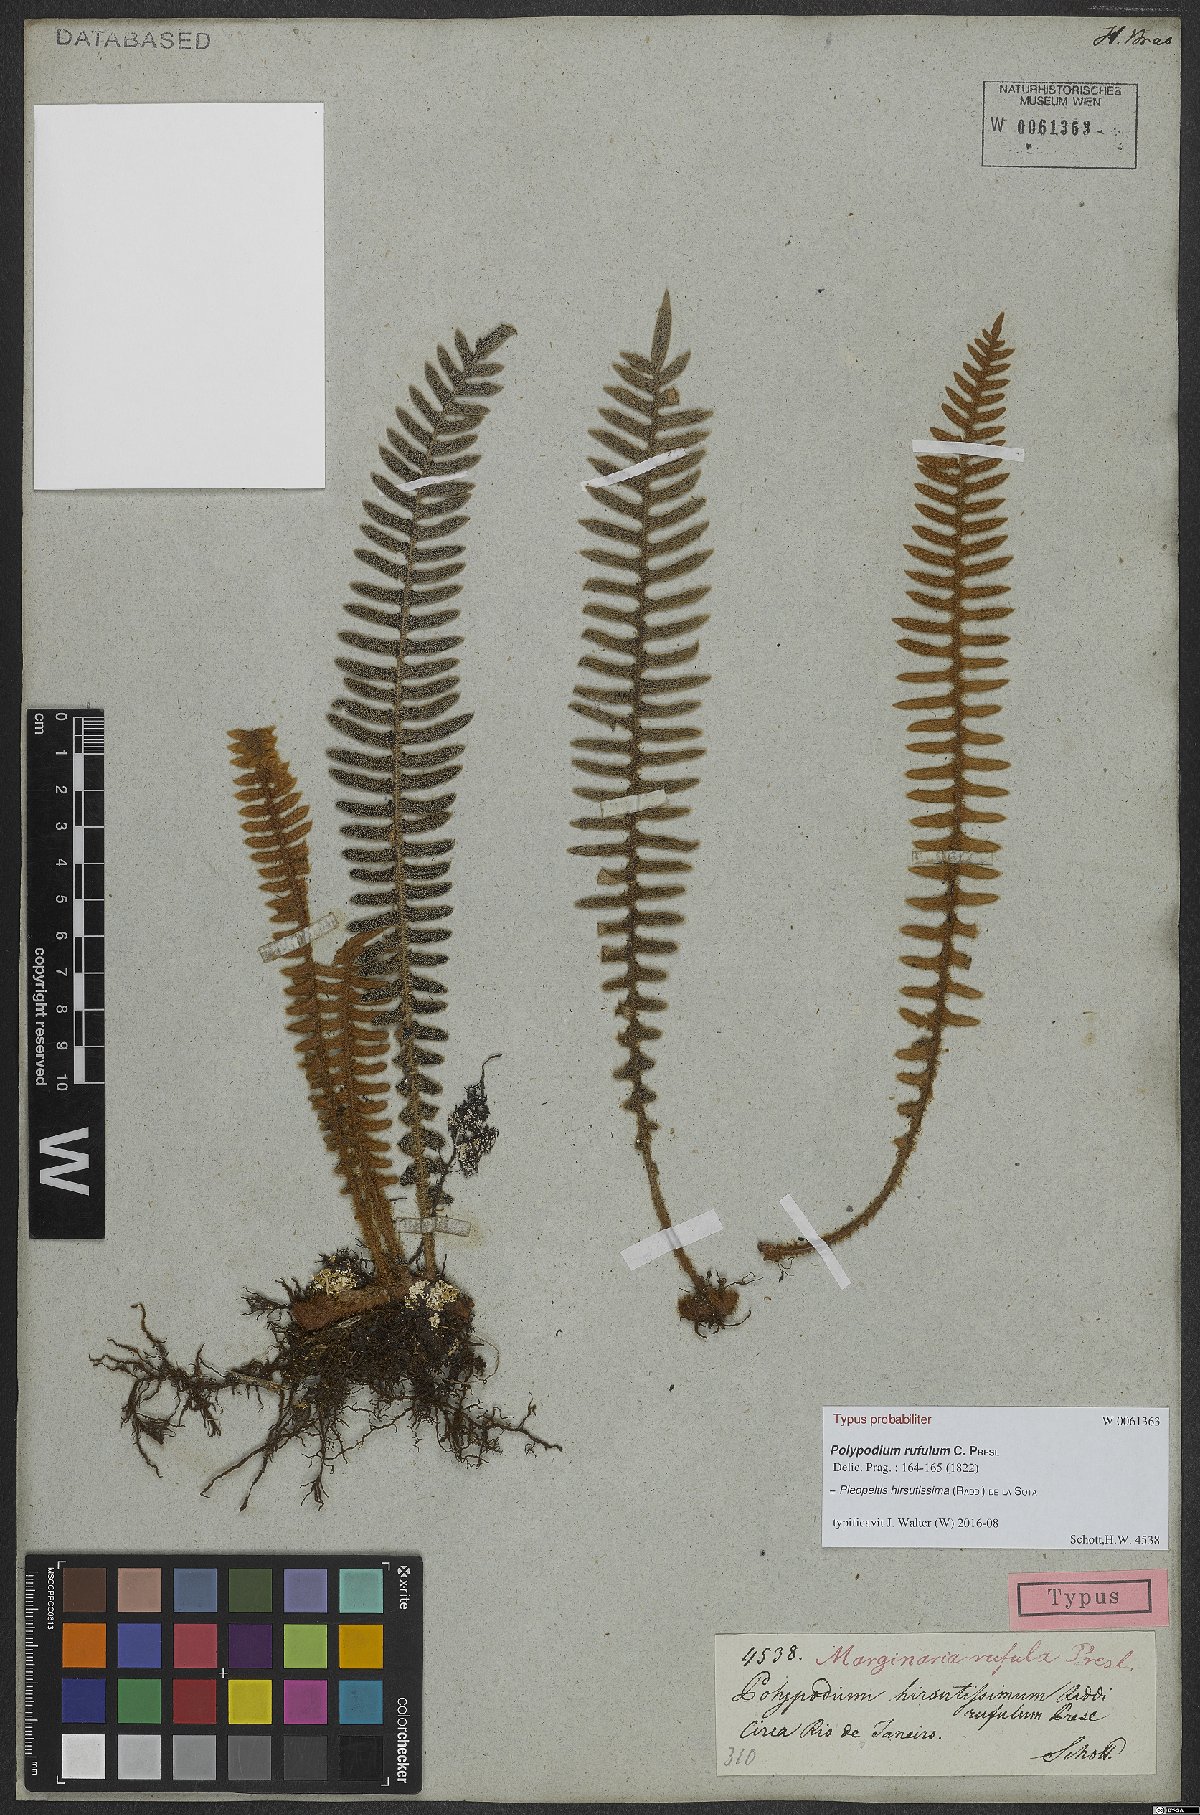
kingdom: Plantae
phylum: Tracheophyta
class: Polypodiopsida
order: Polypodiales
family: Polypodiaceae
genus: Pleopeltis
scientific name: Pleopeltis hirsutissima
